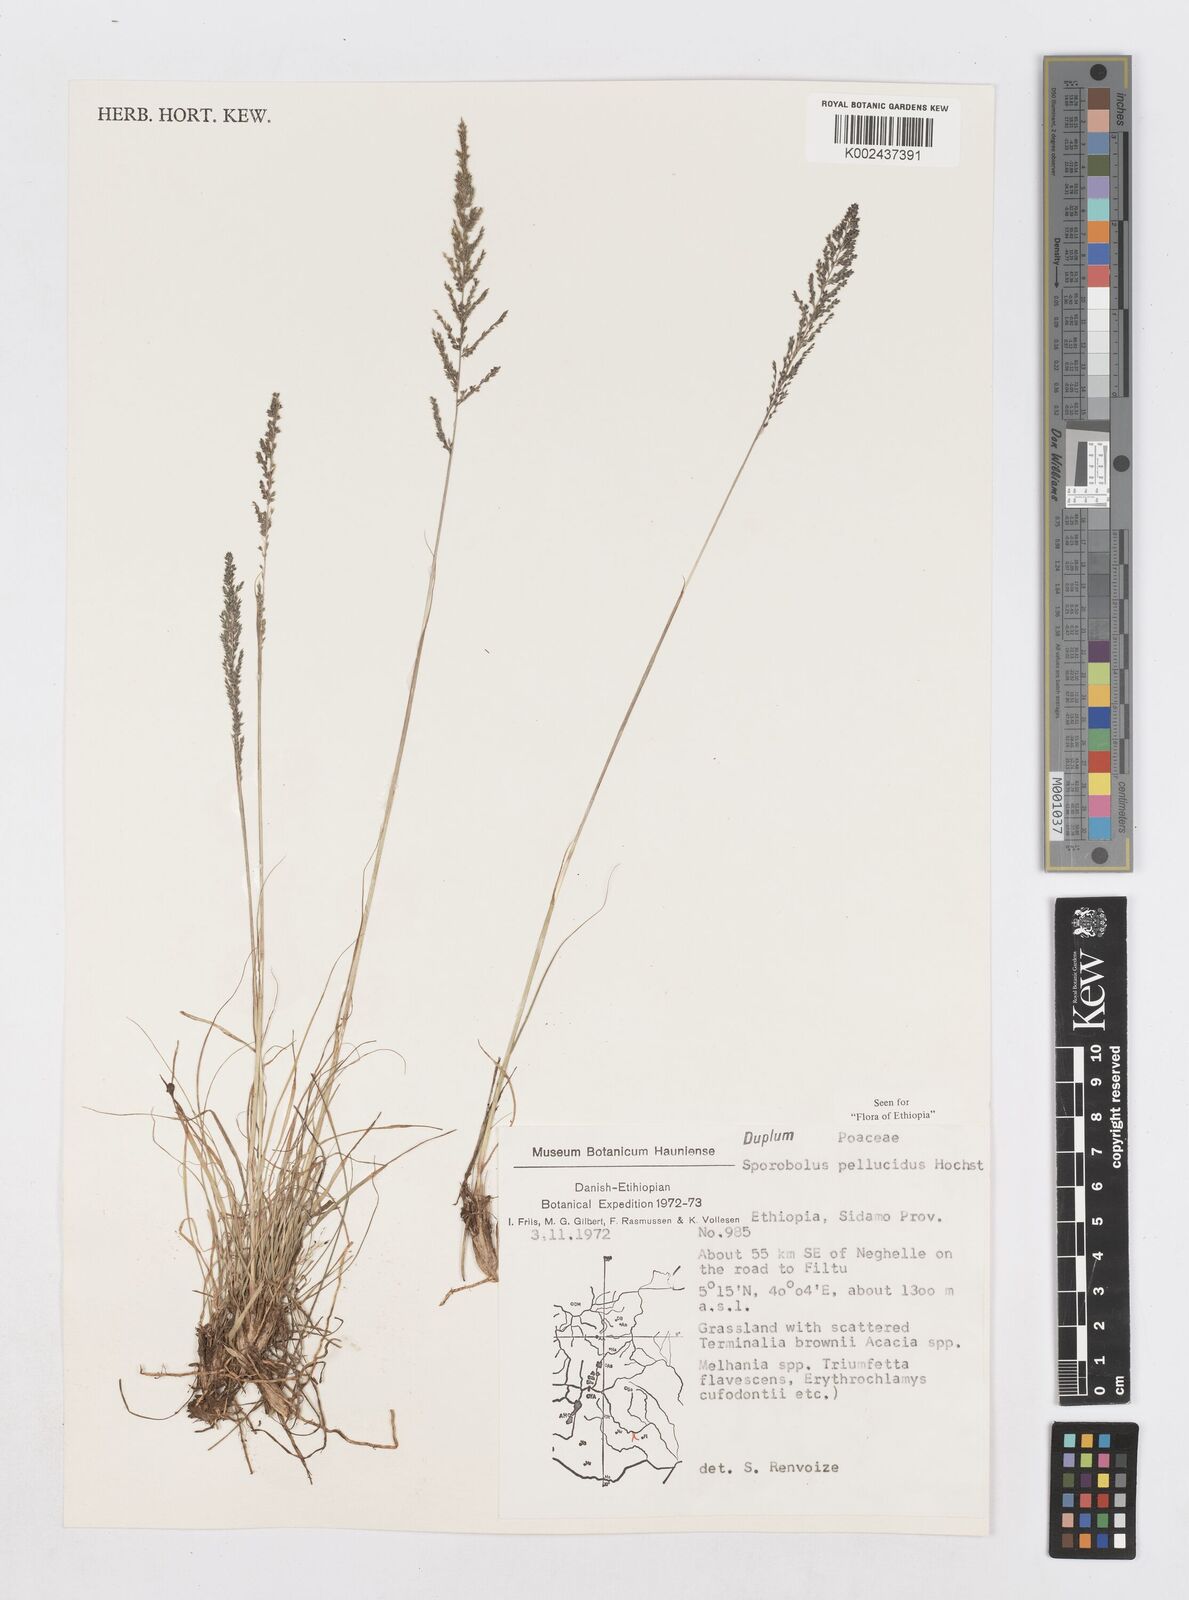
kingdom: Plantae
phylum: Tracheophyta
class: Liliopsida
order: Poales
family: Poaceae
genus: Sporobolus
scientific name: Sporobolus pellucidus
